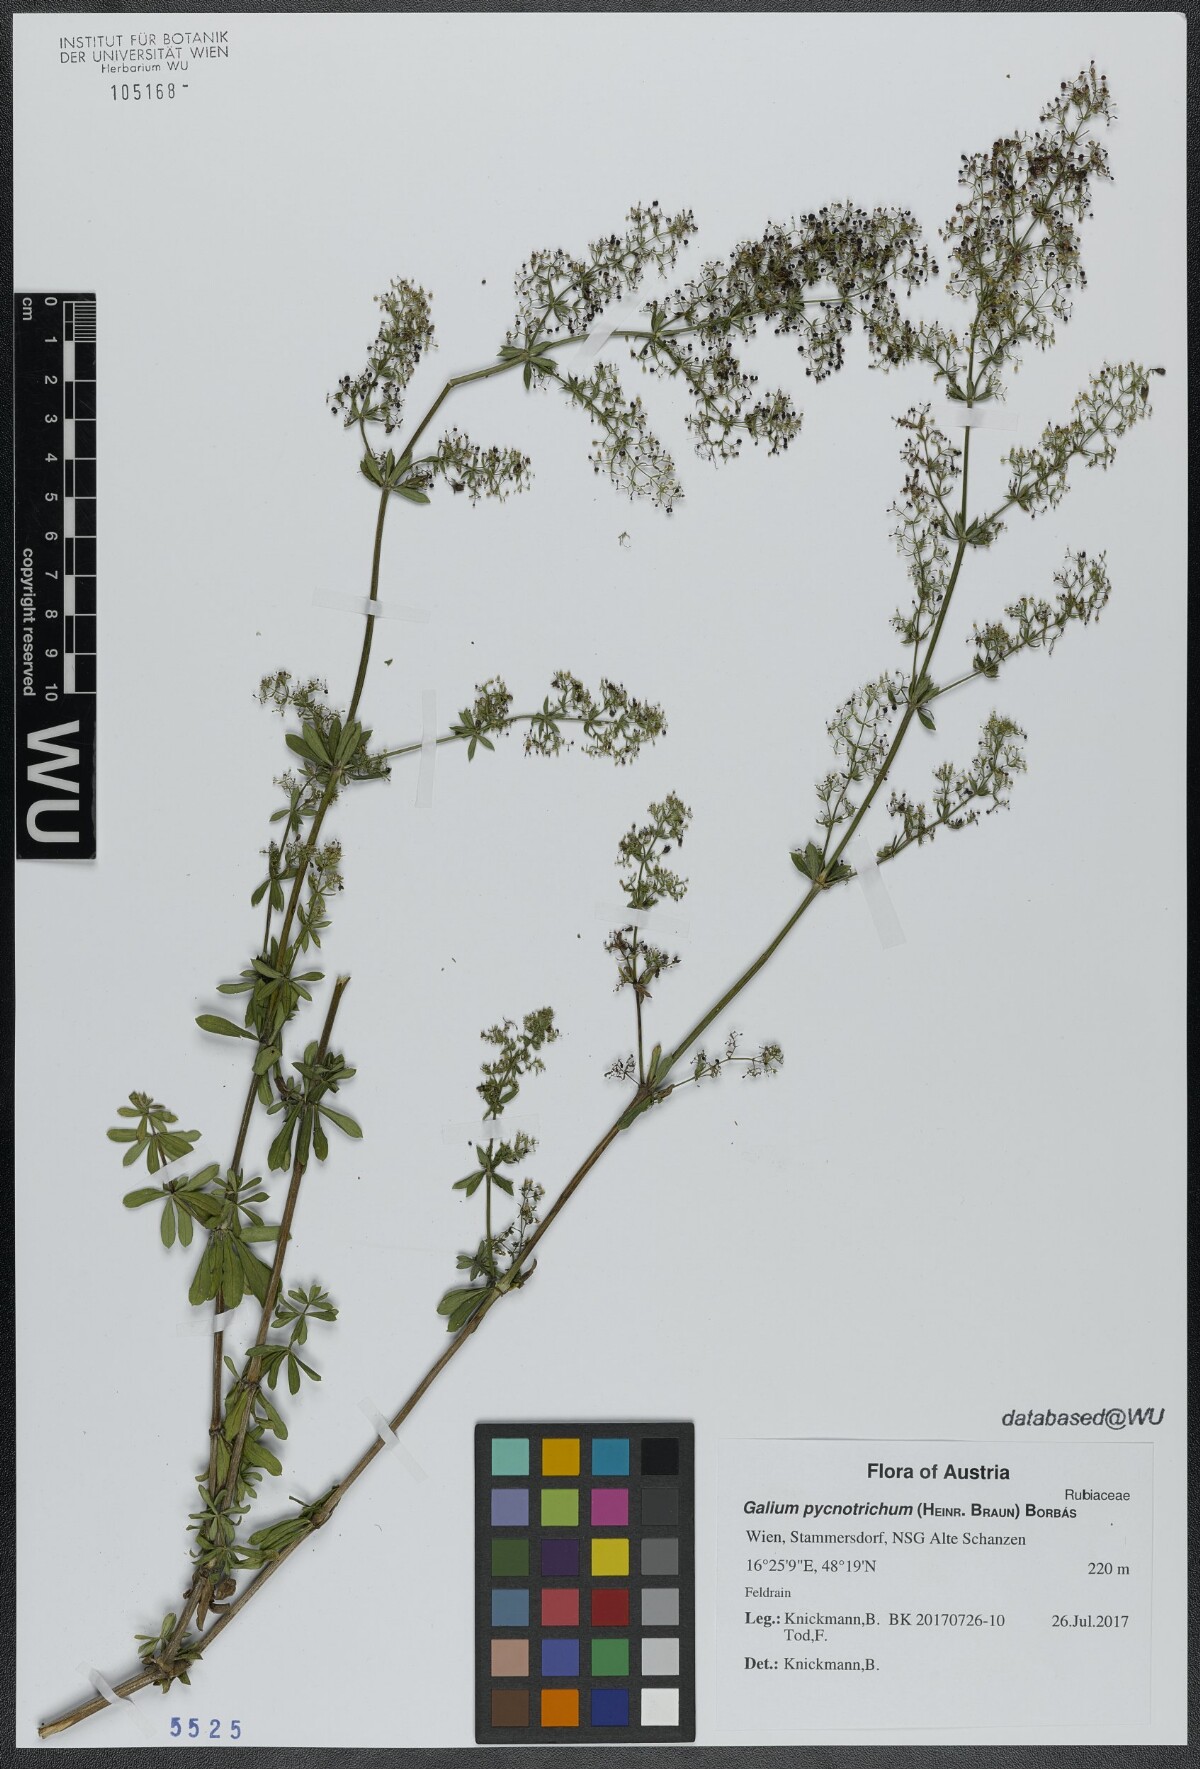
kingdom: Plantae
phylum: Tracheophyta
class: Magnoliopsida
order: Gentianales
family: Rubiaceae
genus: Galium
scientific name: Galium album
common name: White bedstraw
